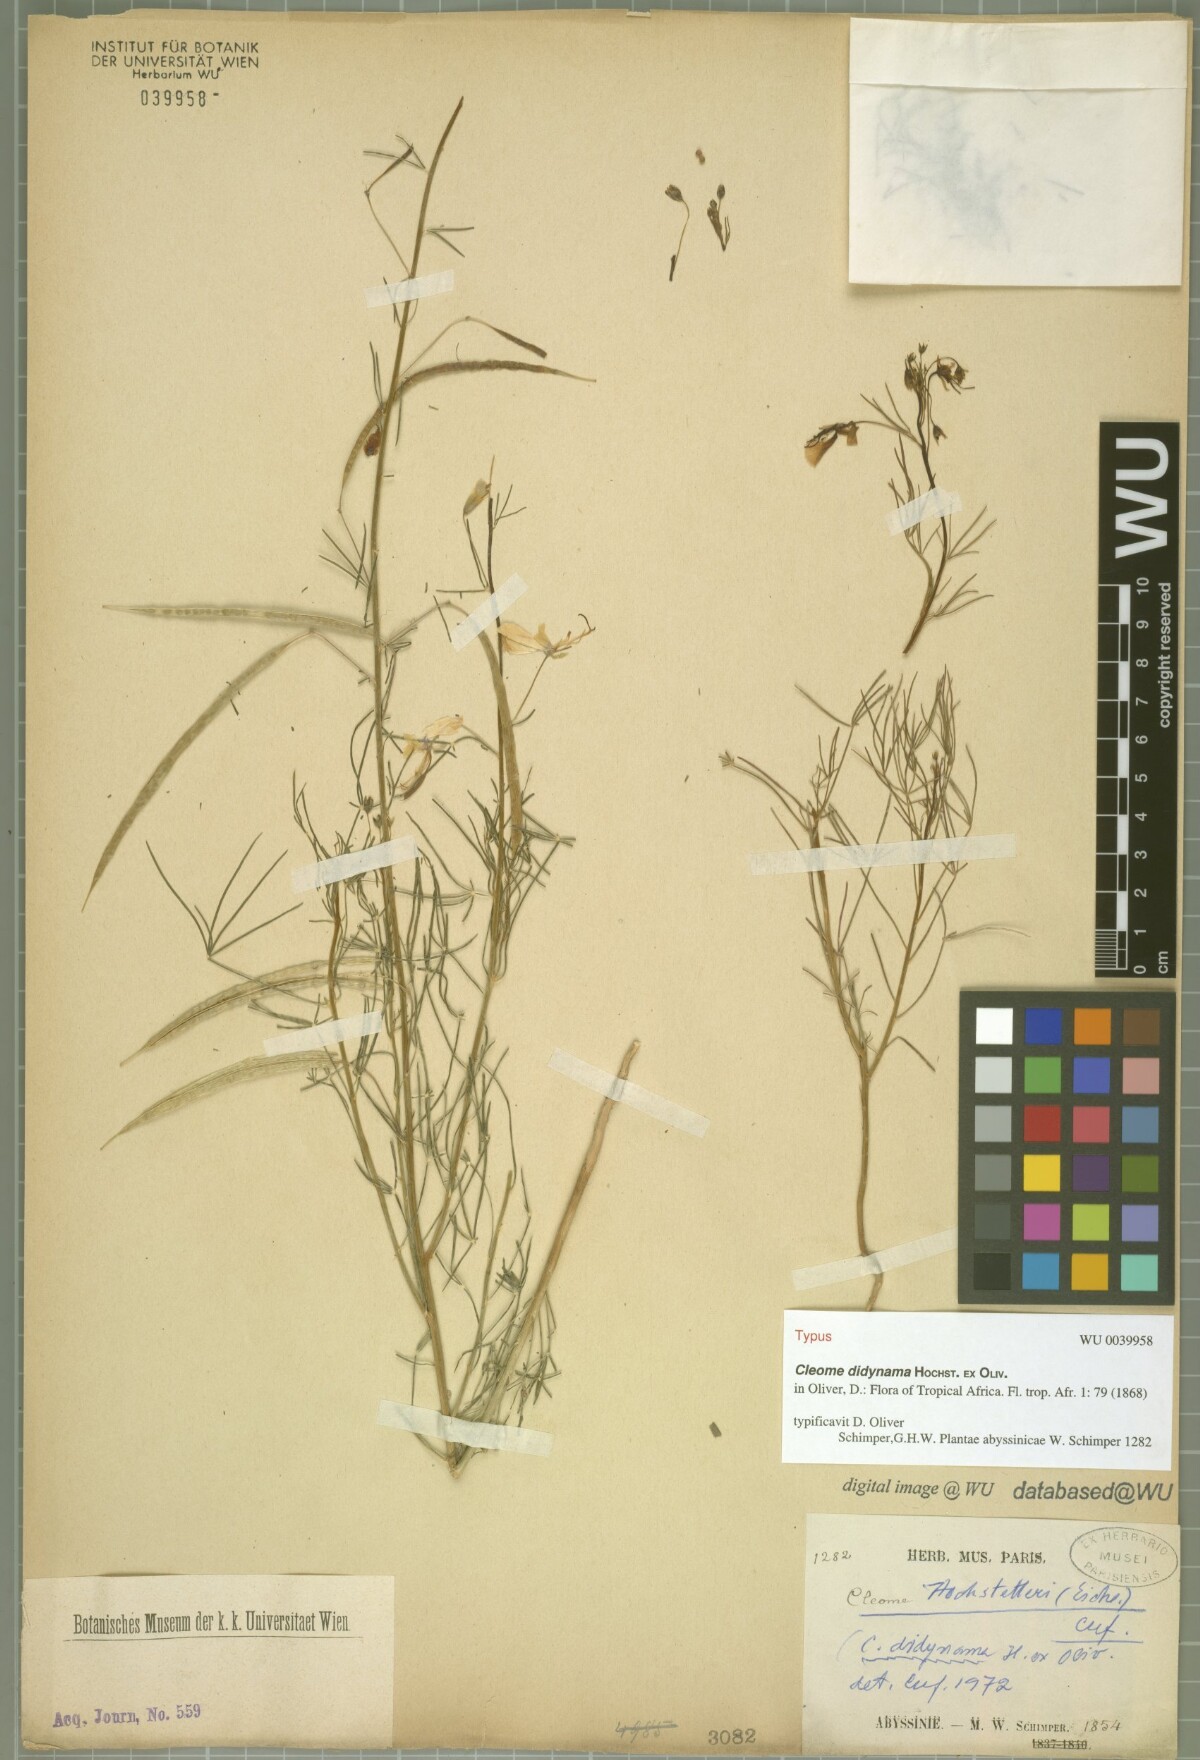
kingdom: Plantae
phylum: Tracheophyta
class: Magnoliopsida
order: Brassicales
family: Cleomaceae
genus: Coalisina
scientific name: Coalisina angustifolia
